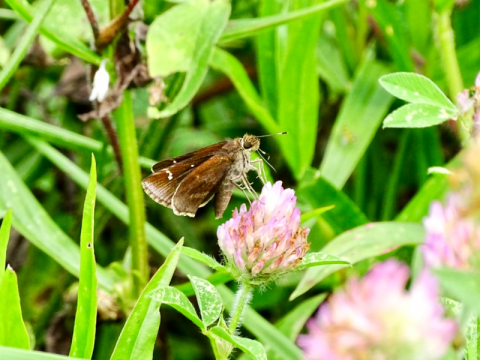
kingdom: Animalia
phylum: Arthropoda
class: Insecta
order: Lepidoptera
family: Hesperiidae
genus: Lerema
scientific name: Lerema accius
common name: Clouded Skipper
